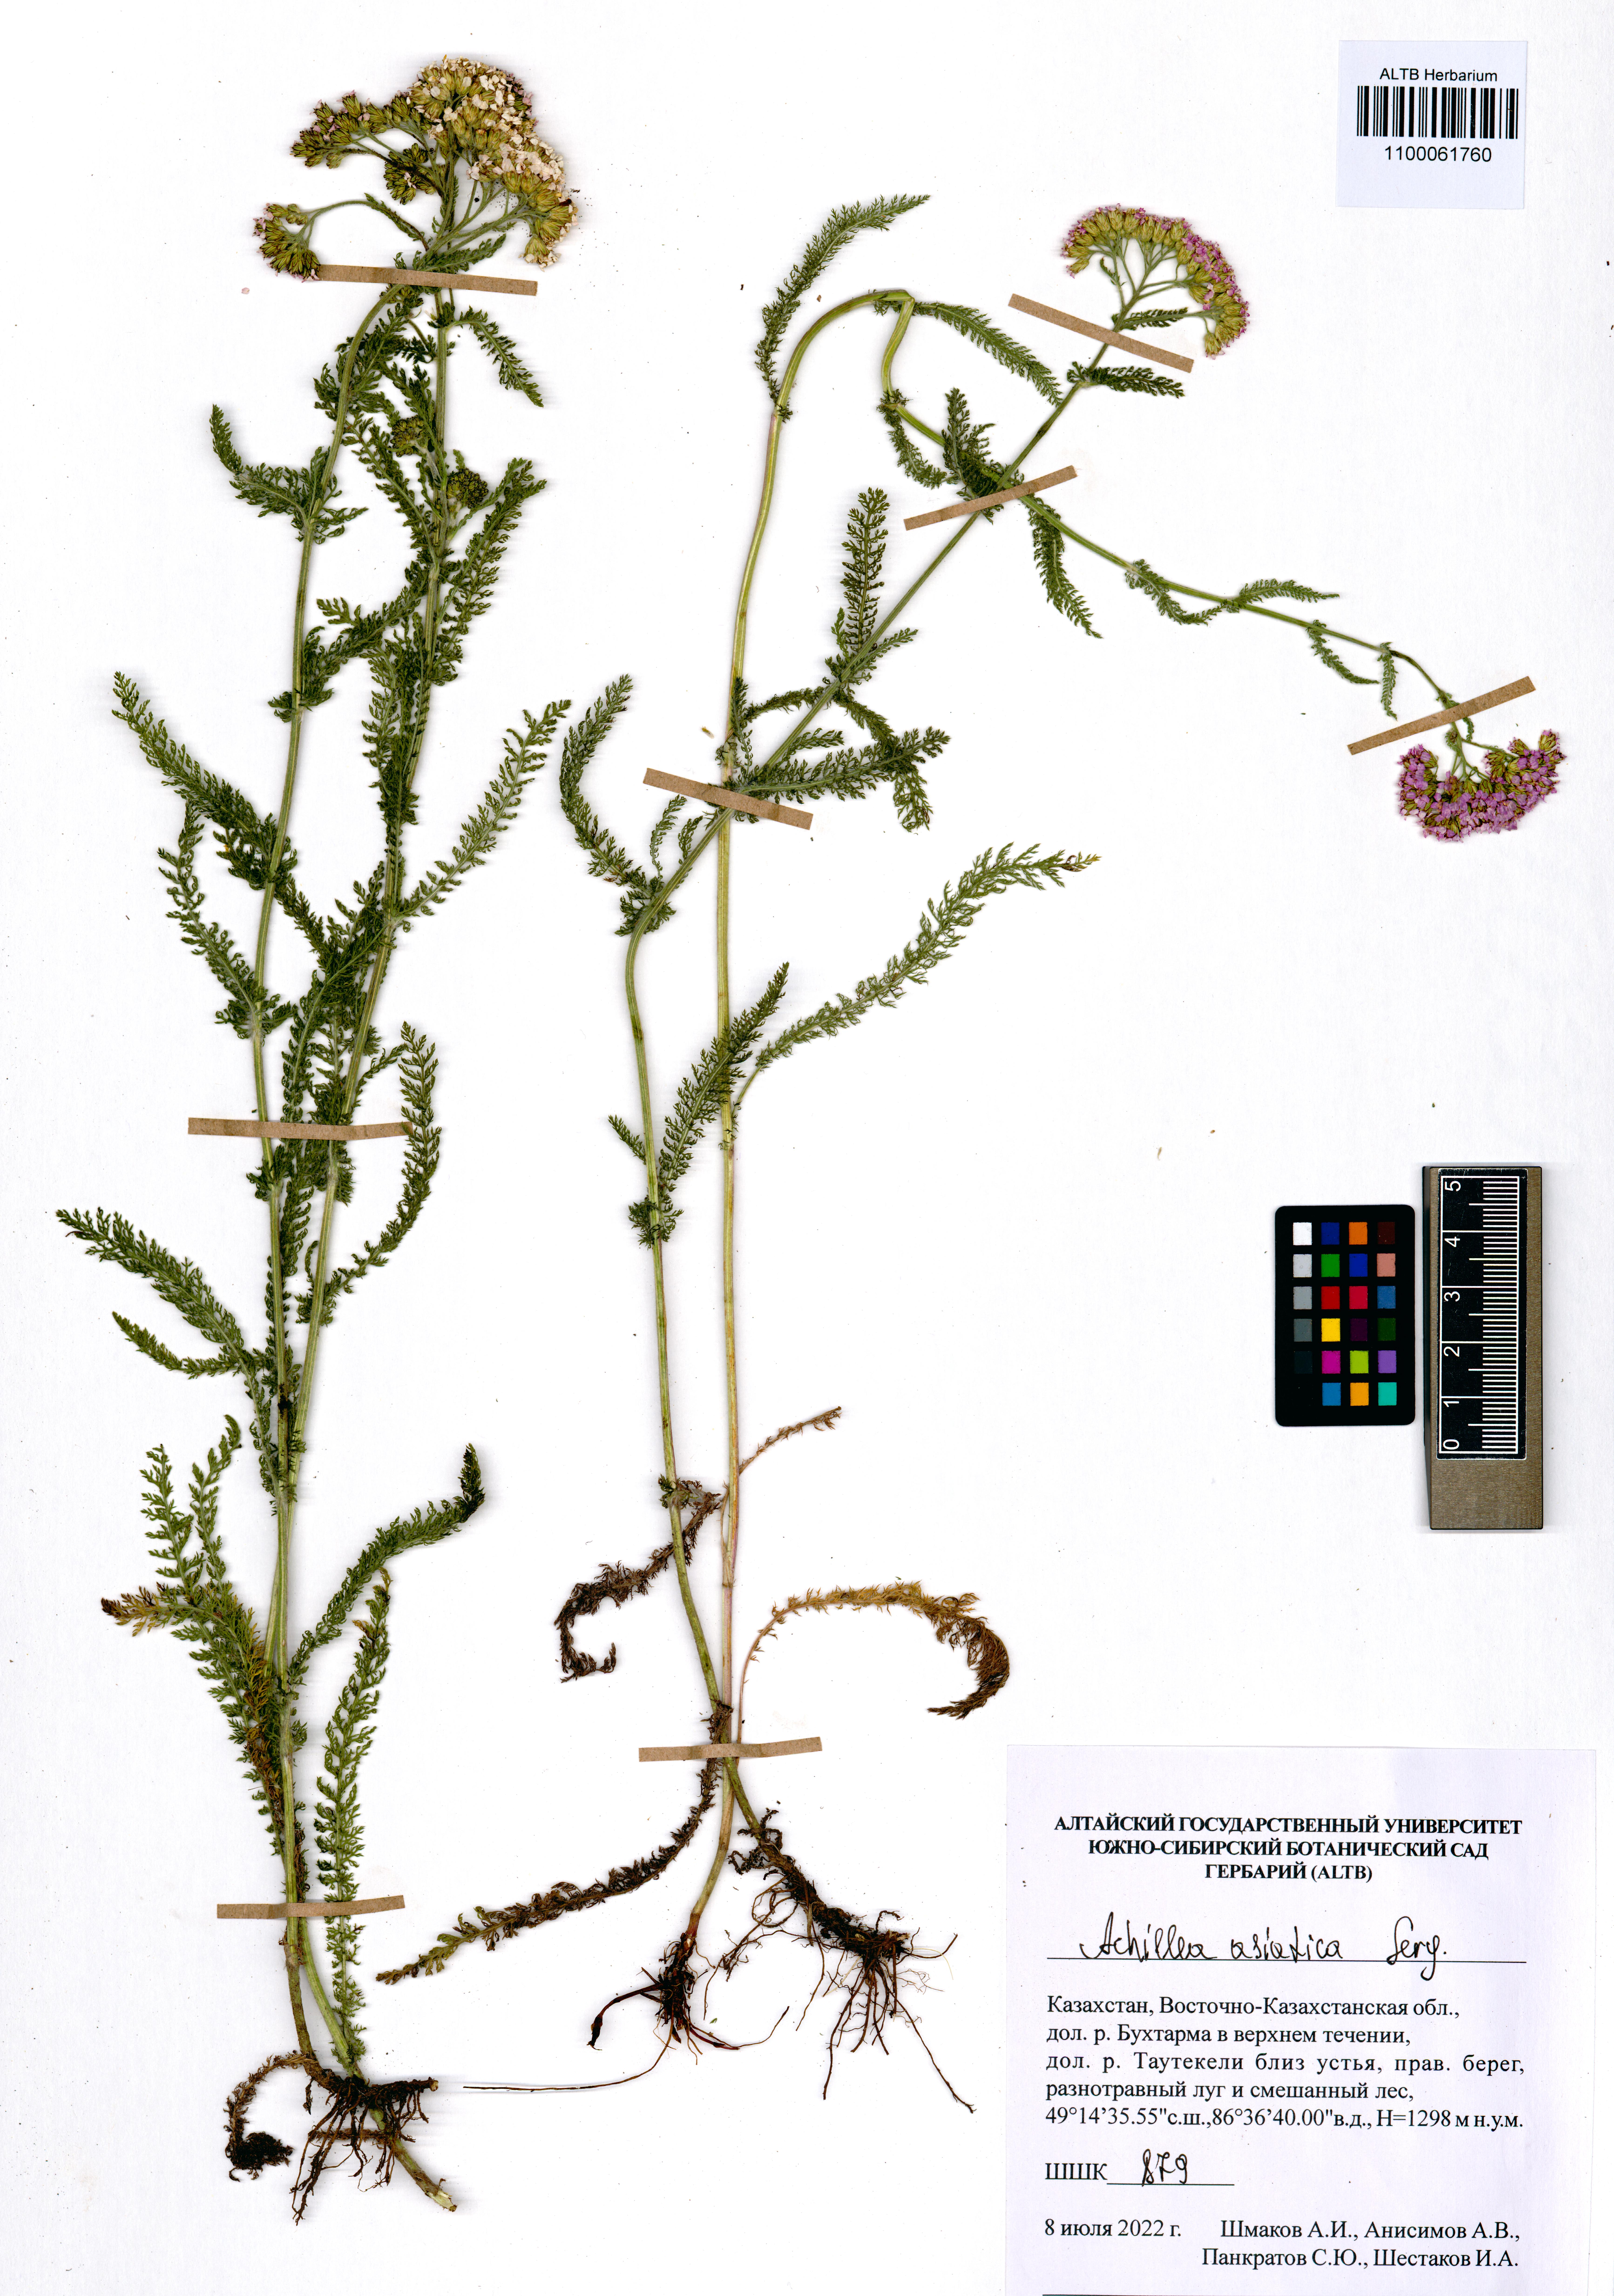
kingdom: Plantae
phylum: Tracheophyta
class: Magnoliopsida
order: Asterales
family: Asteraceae
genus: Achillea
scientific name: Achillea asiatica
